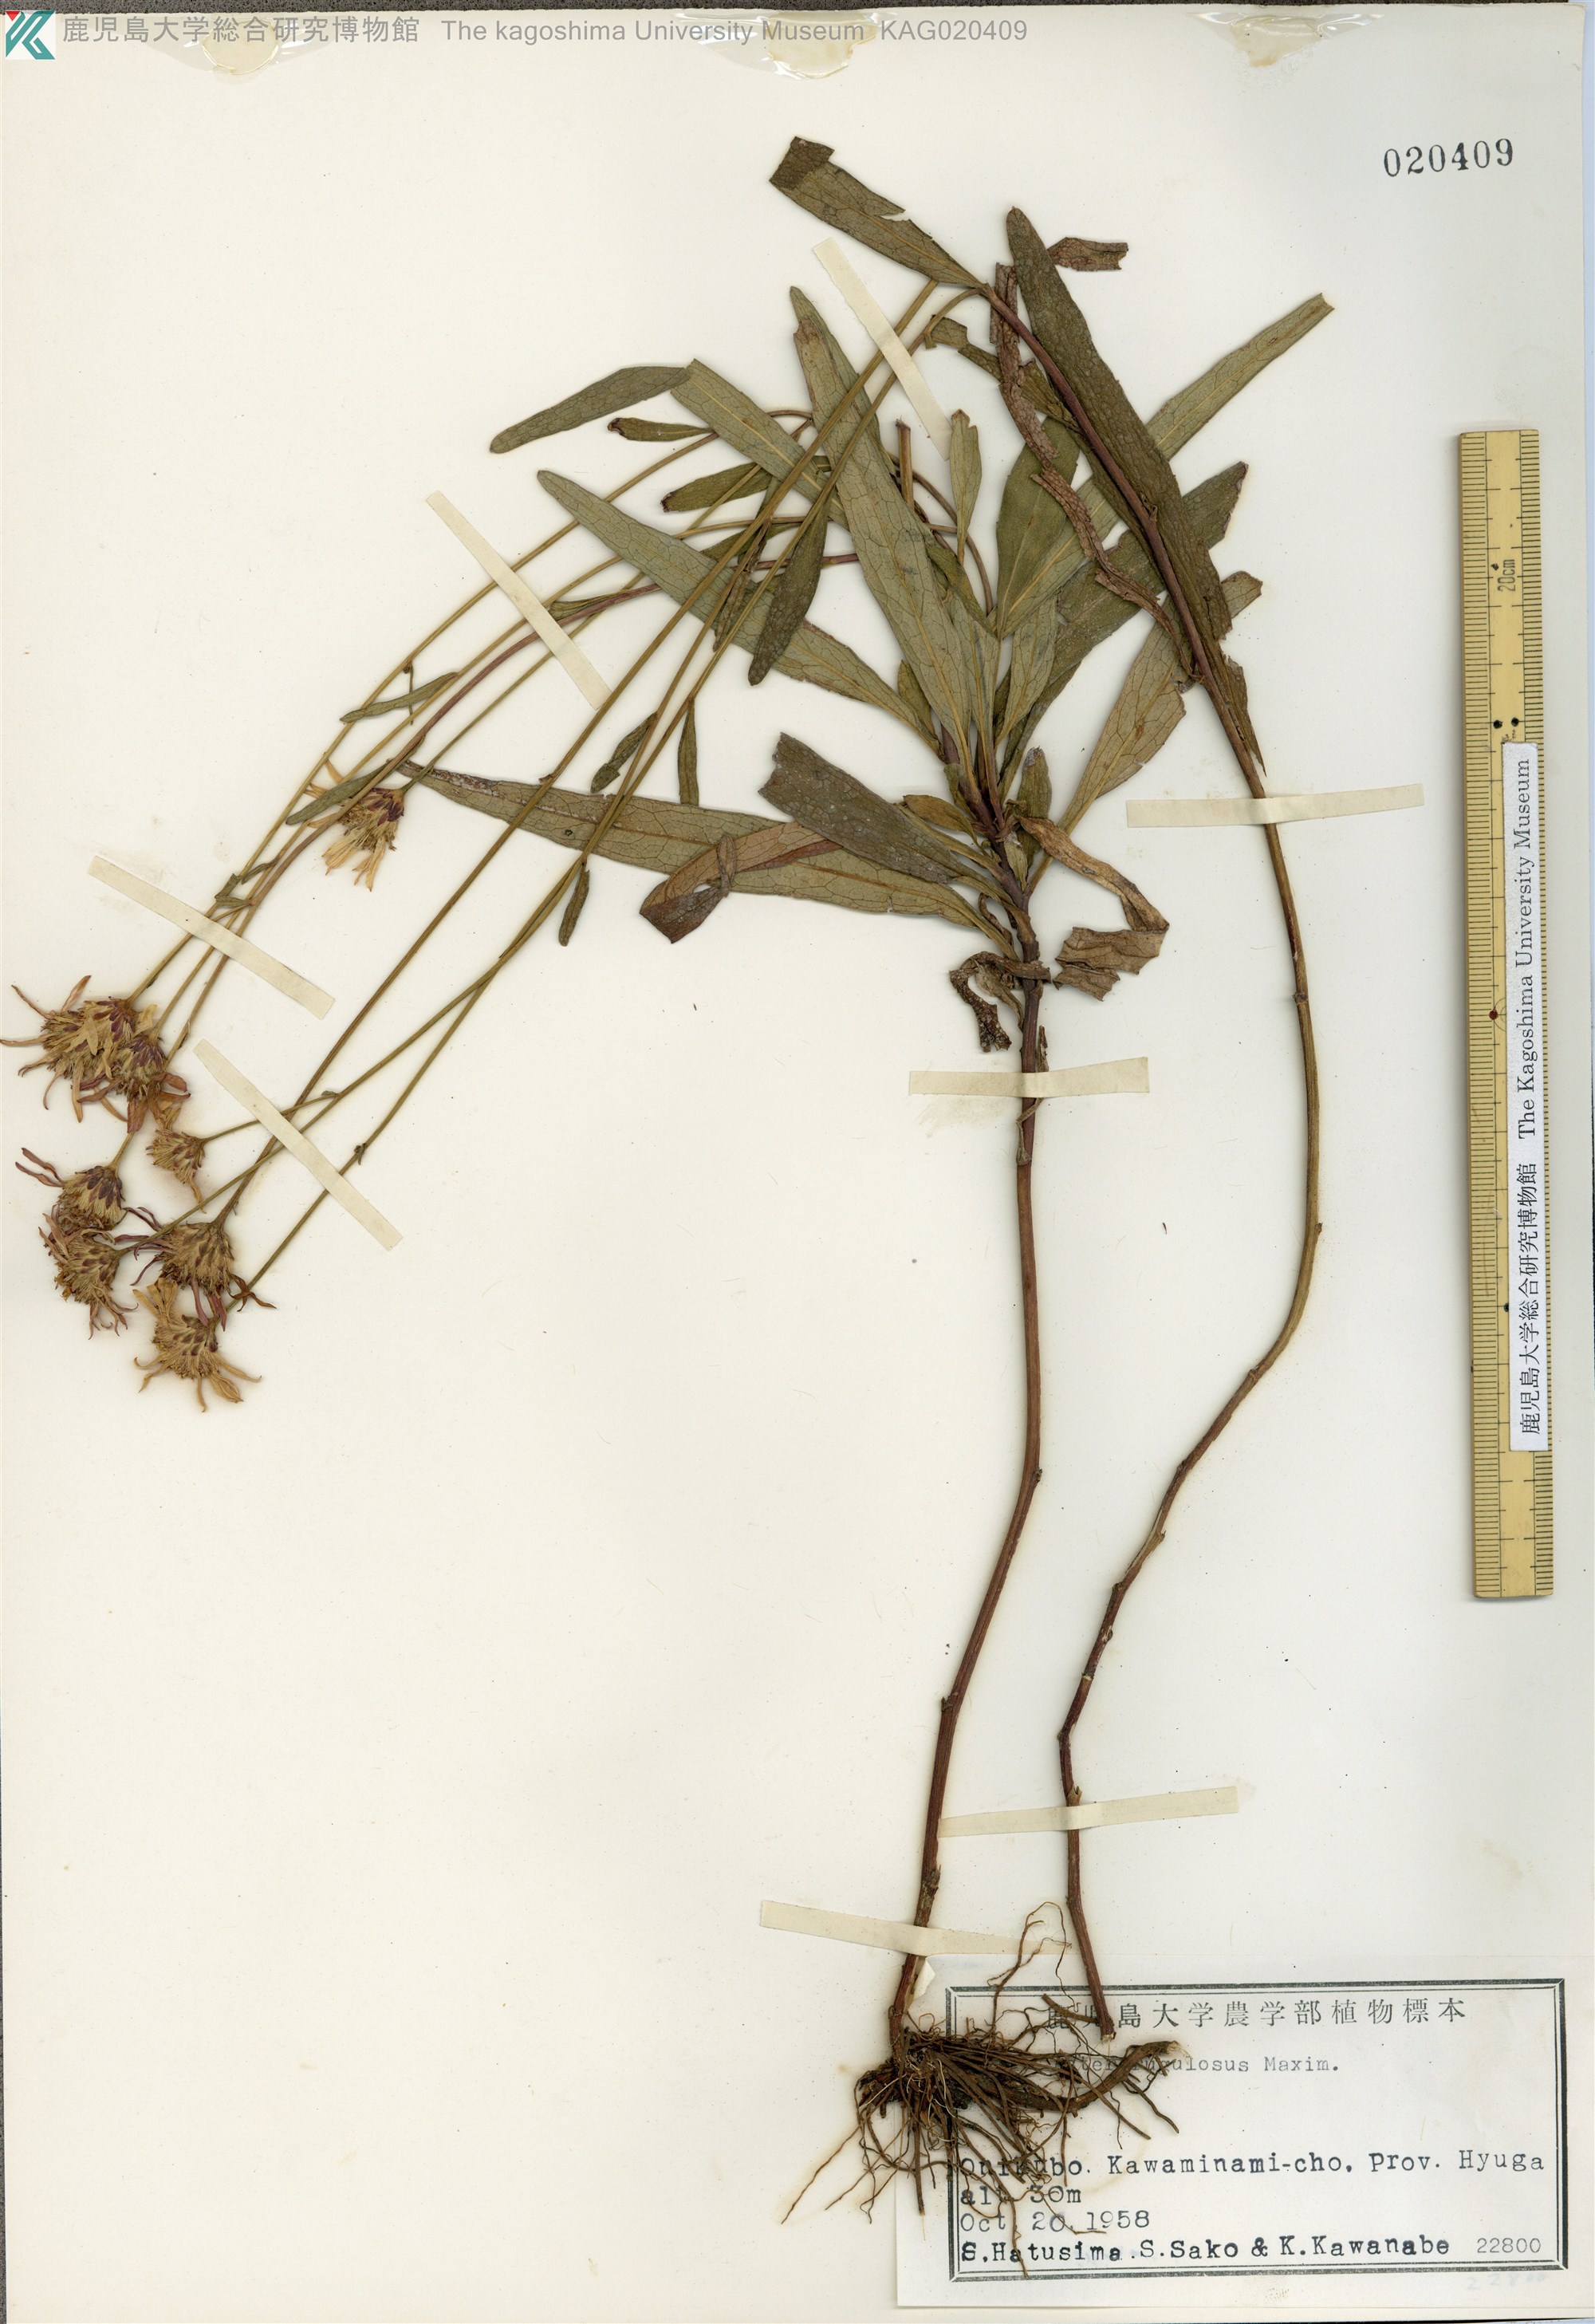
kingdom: Plantae
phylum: Tracheophyta
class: Magnoliopsida
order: Asterales
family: Asteraceae
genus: Cardiagyris
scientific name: Cardiagyris rugulosa
